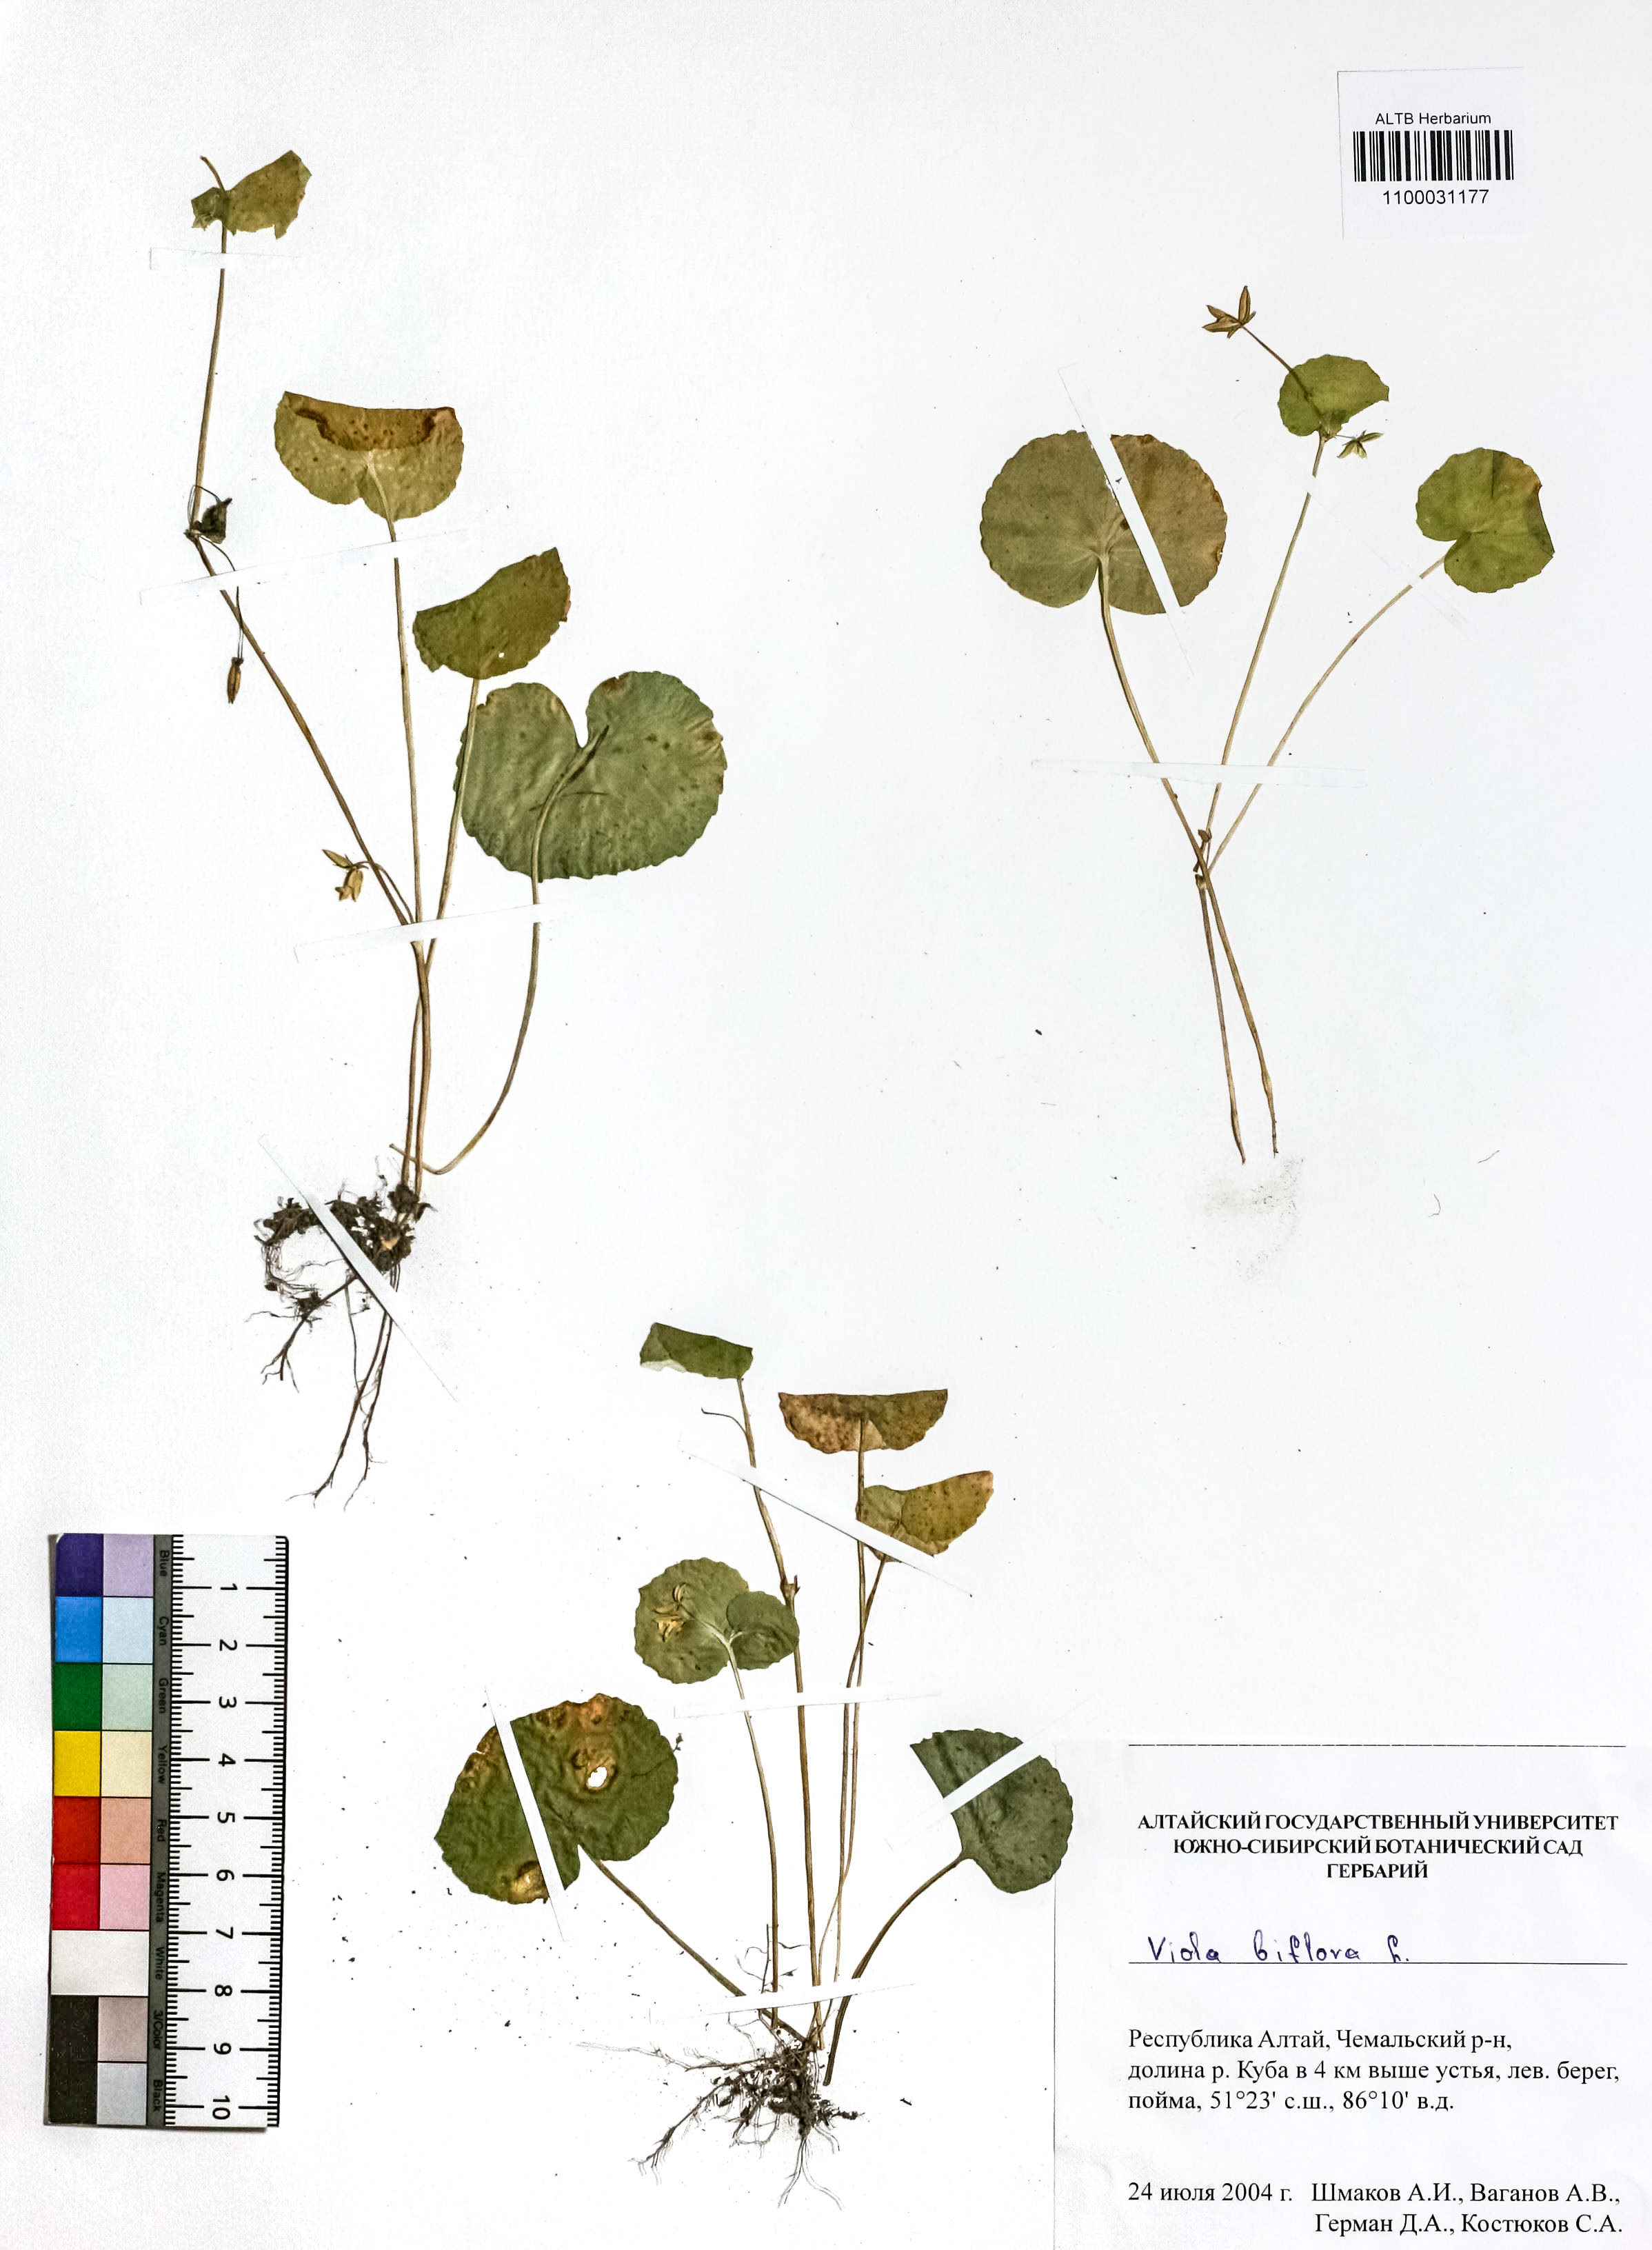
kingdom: Plantae
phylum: Tracheophyta
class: Magnoliopsida
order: Malpighiales
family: Violaceae
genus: Viola
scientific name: Viola biflora
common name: Alpine yellow violet
